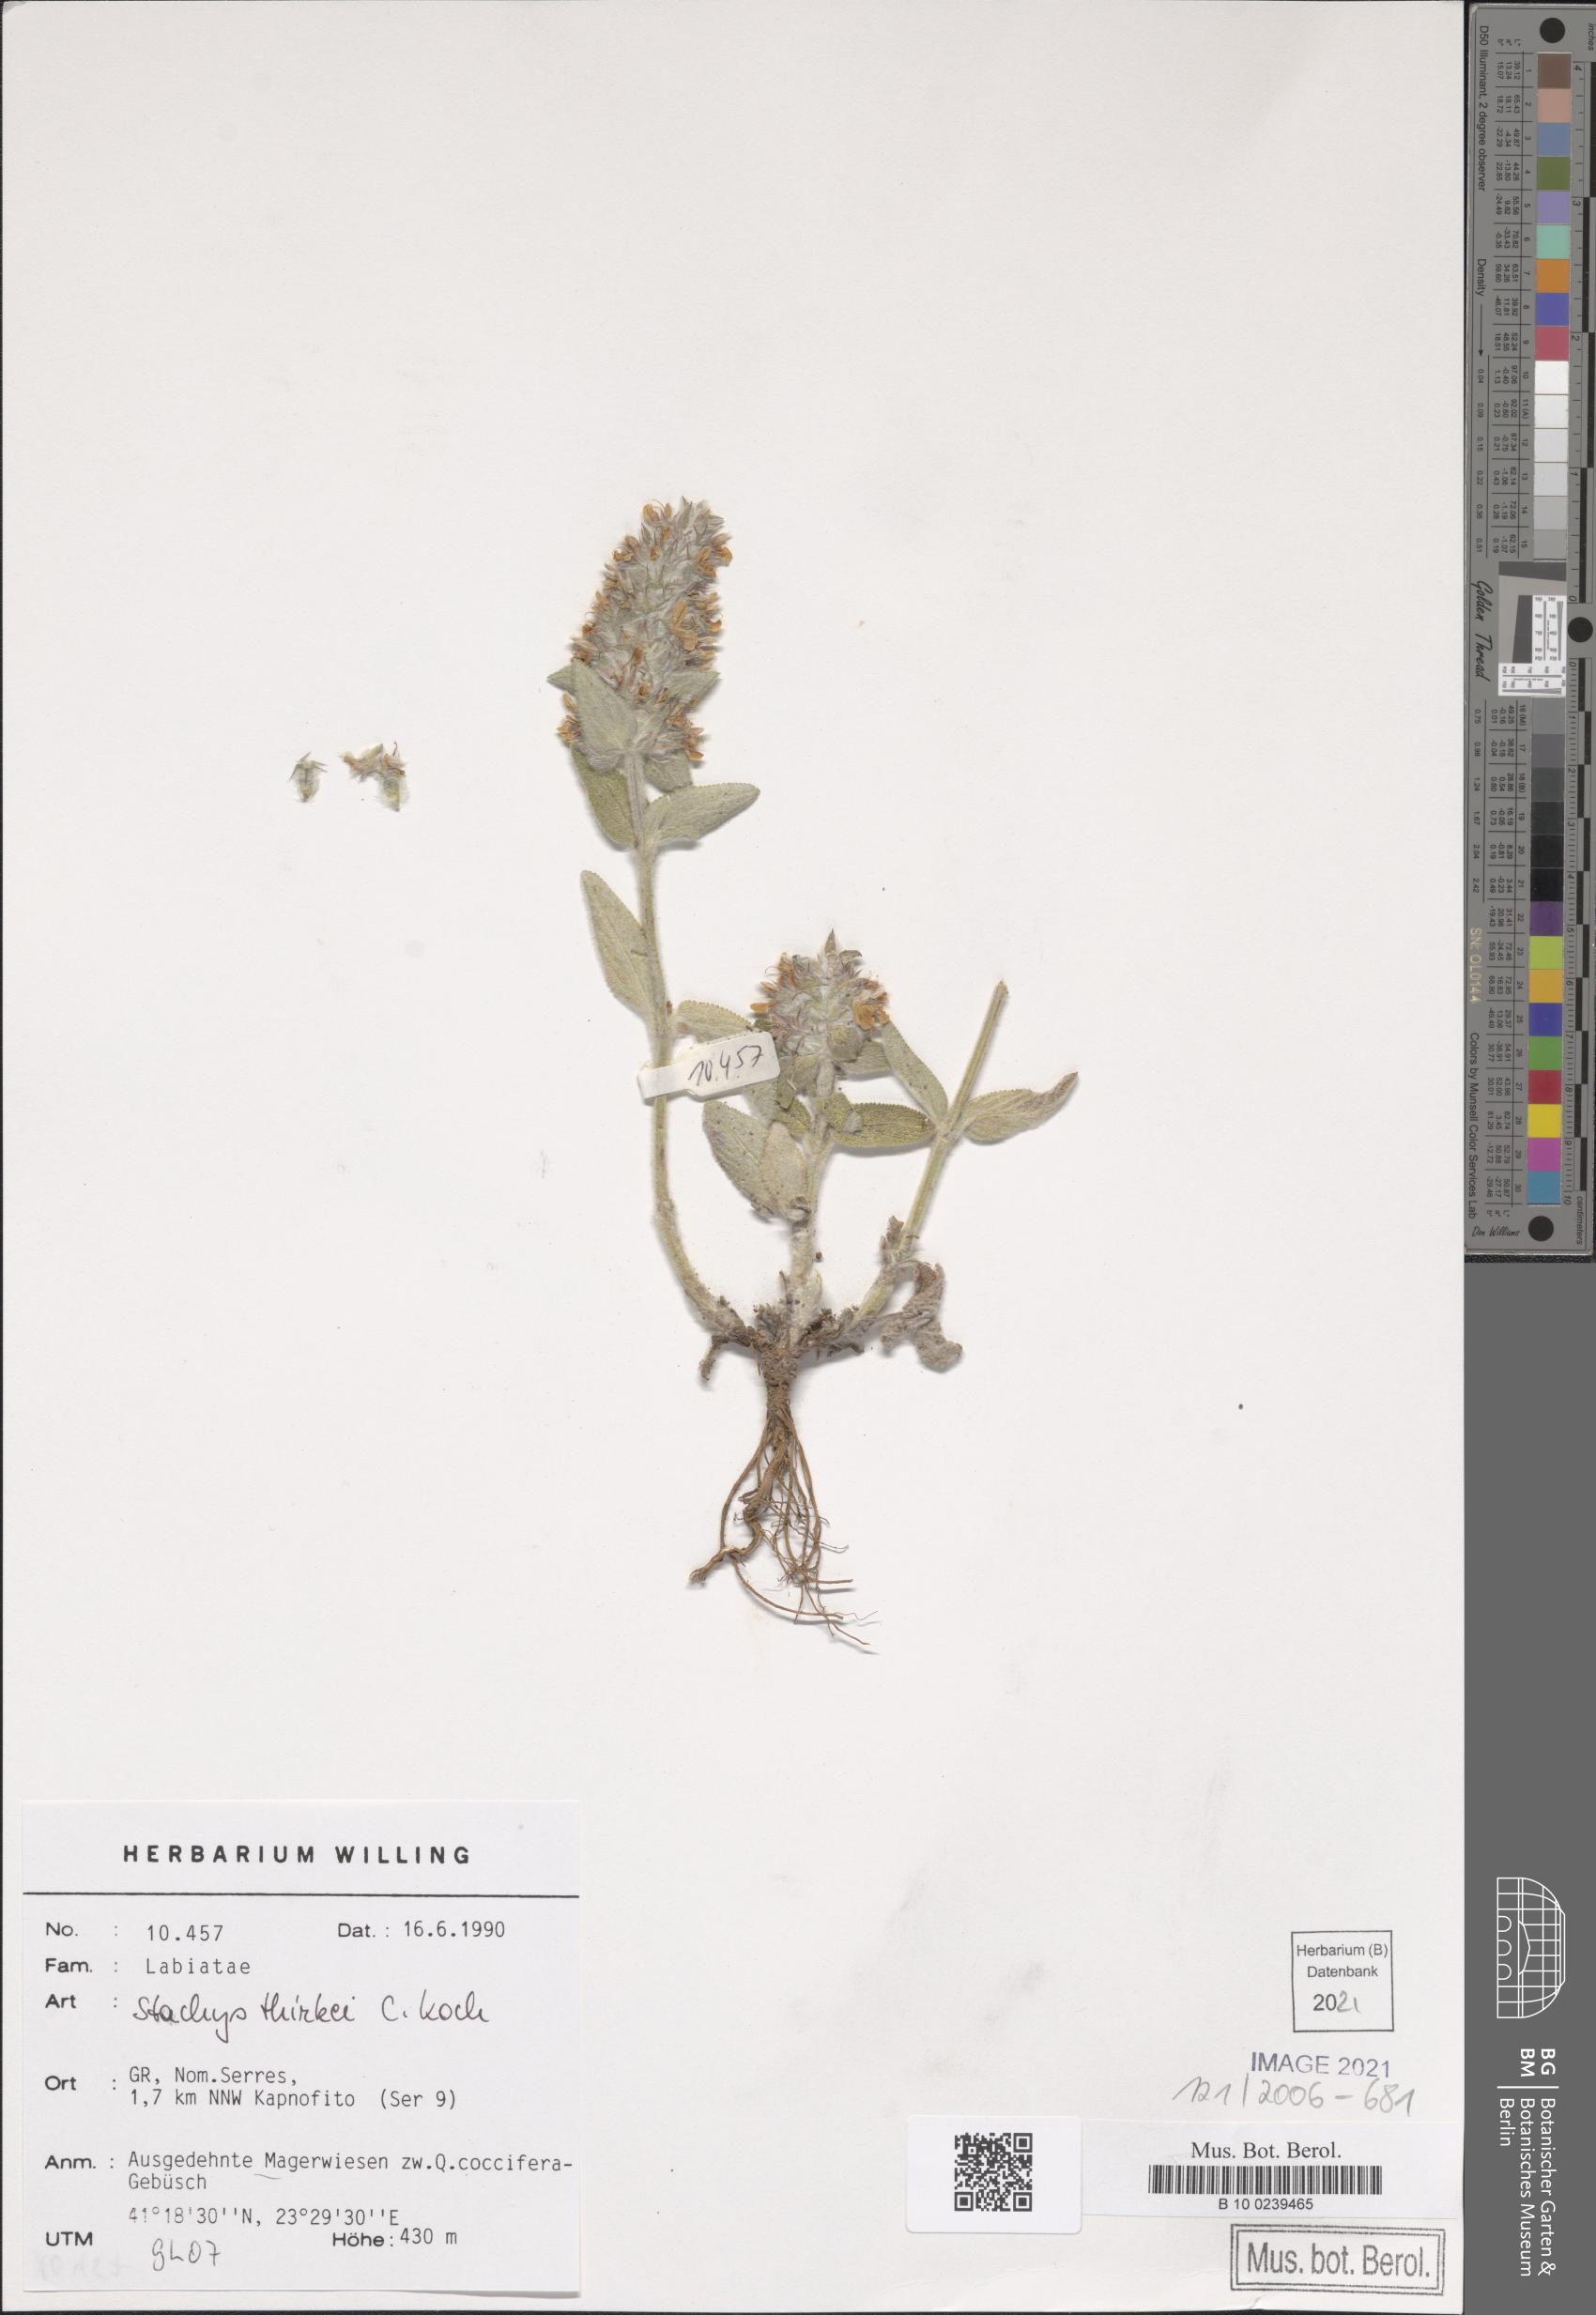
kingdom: Plantae
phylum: Tracheophyta
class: Magnoliopsida
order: Lamiales
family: Lamiaceae
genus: Stachys
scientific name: Stachys thirkei
